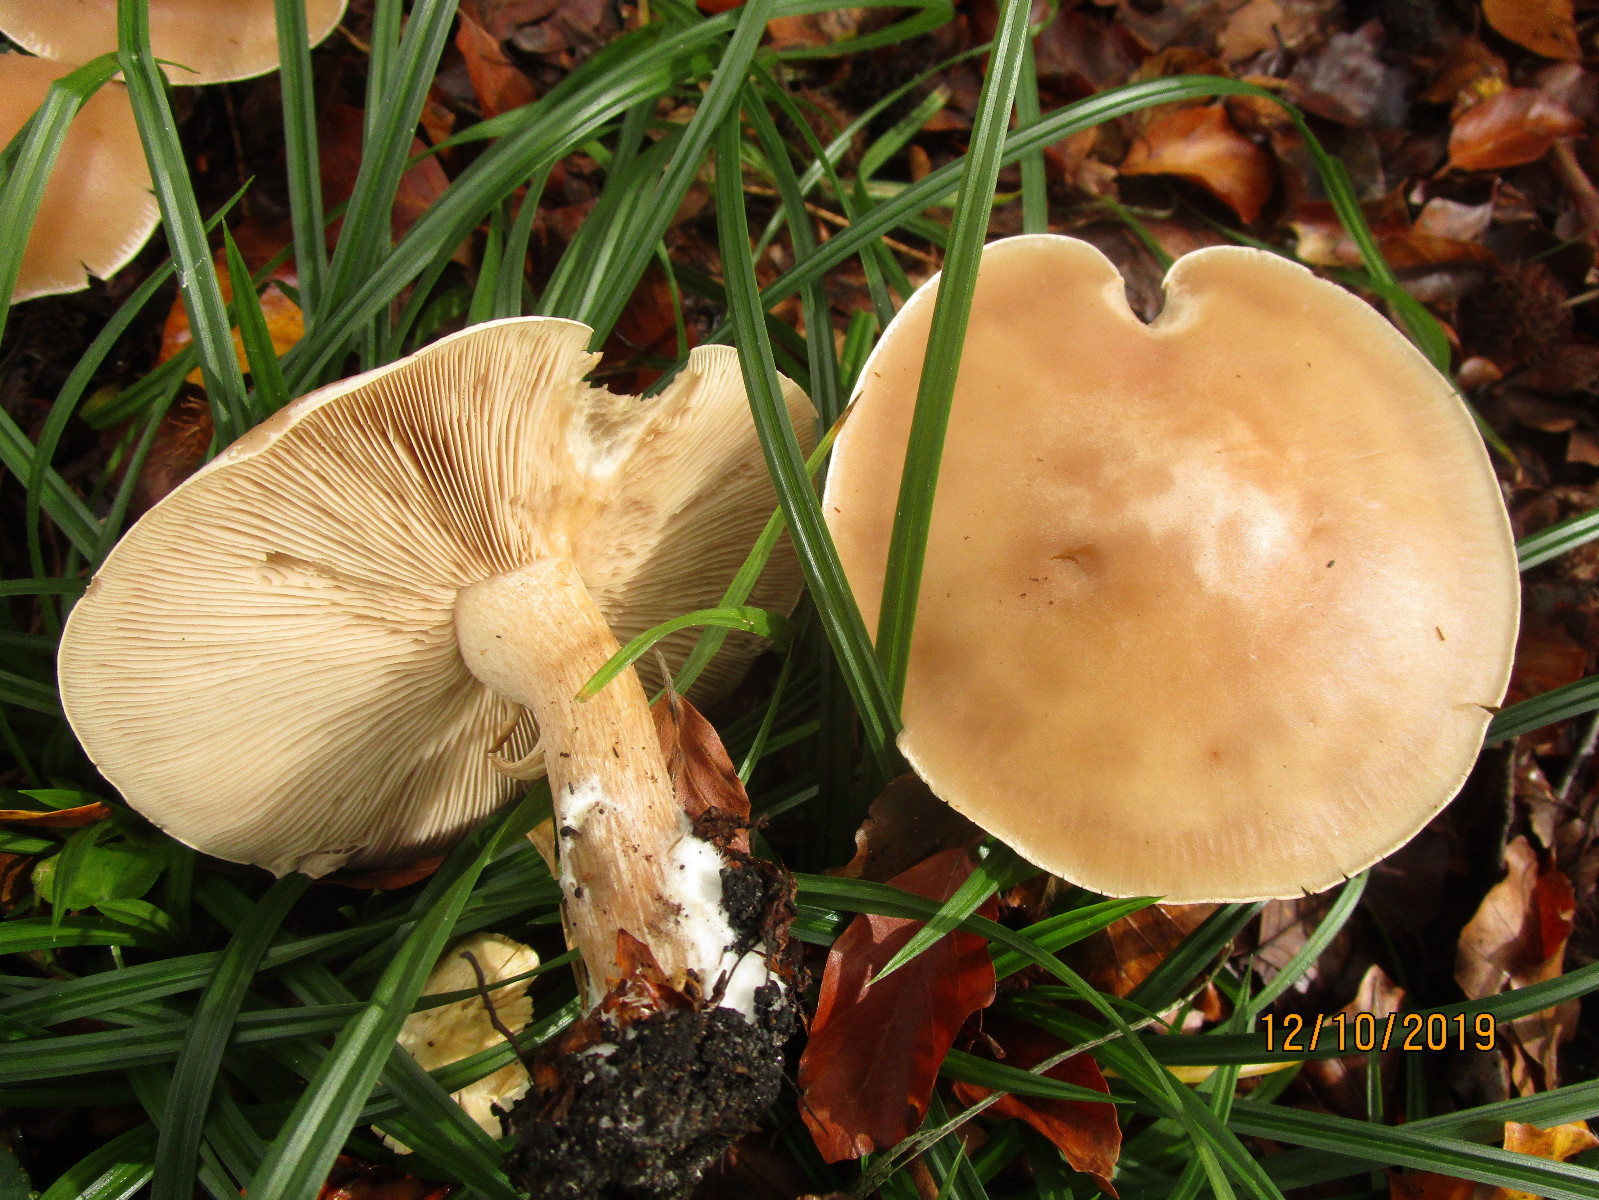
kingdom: Fungi
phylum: Basidiomycota
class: Agaricomycetes
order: Agaricales
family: Tricholomataceae
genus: Lepista
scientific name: Lepista irina
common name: violduftende hekseringshat
